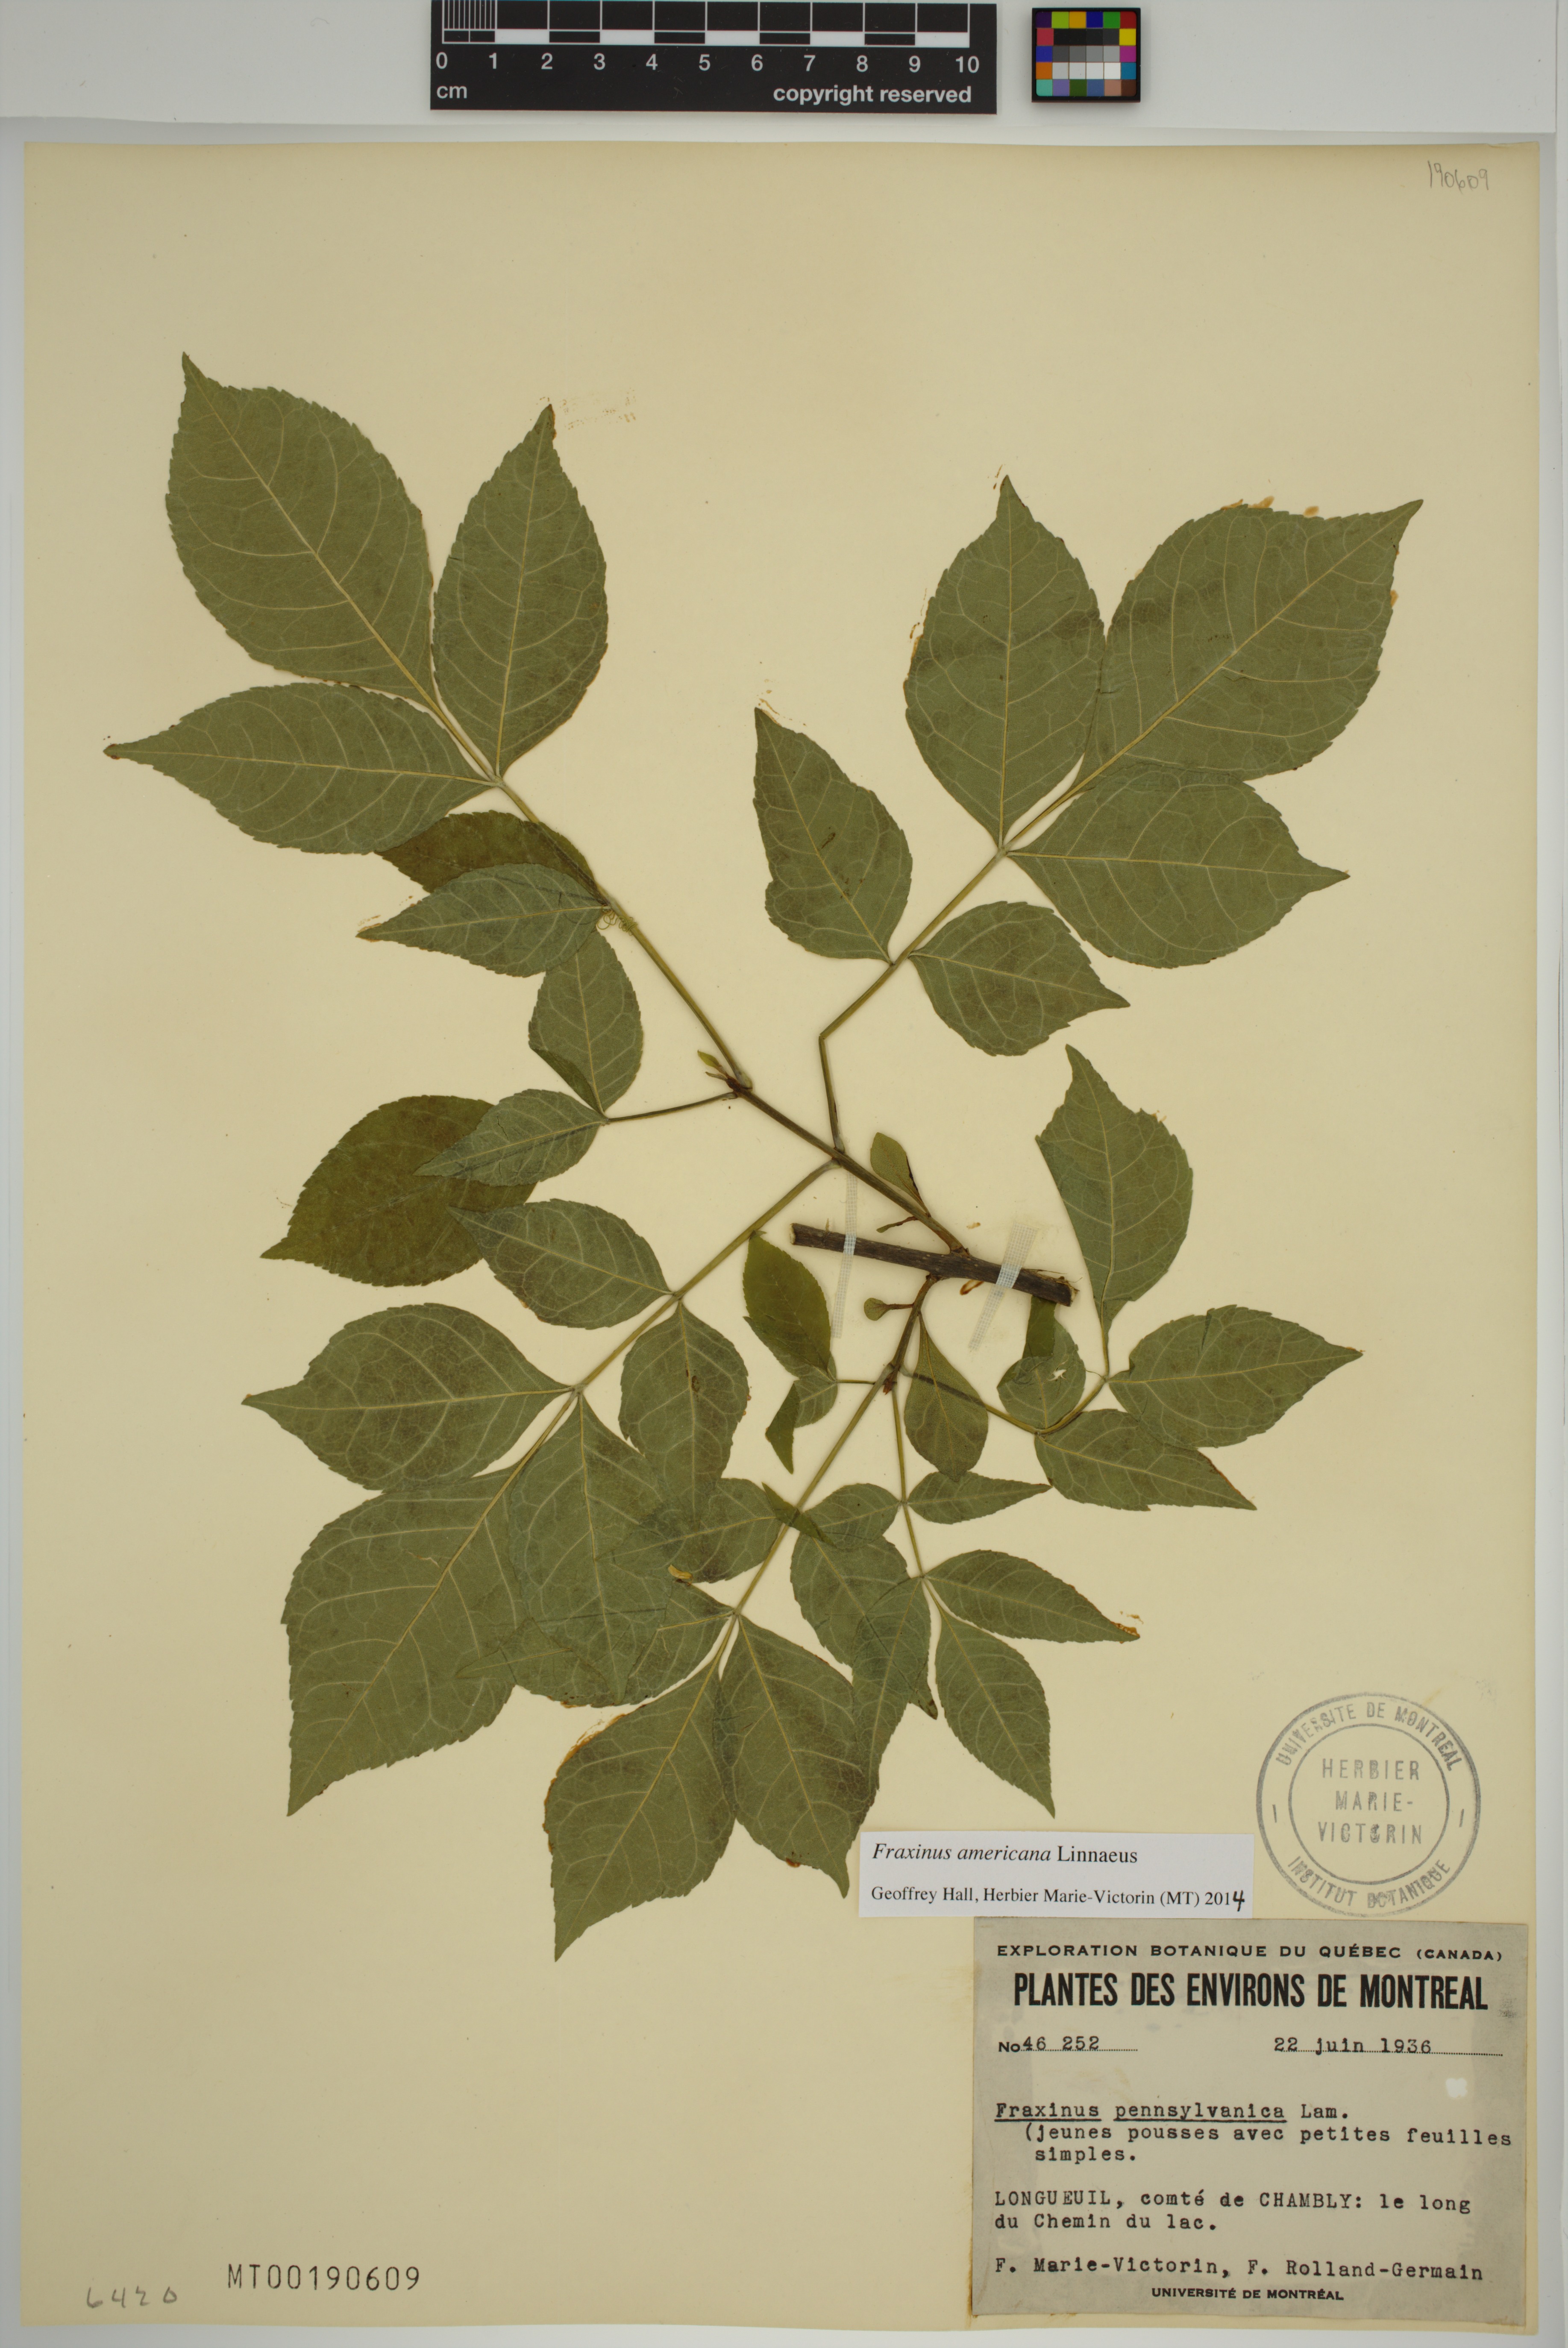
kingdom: Plantae
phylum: Tracheophyta
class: Magnoliopsida
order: Lamiales
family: Oleaceae
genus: Fraxinus
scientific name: Fraxinus pennsylvanica
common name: Green ash
